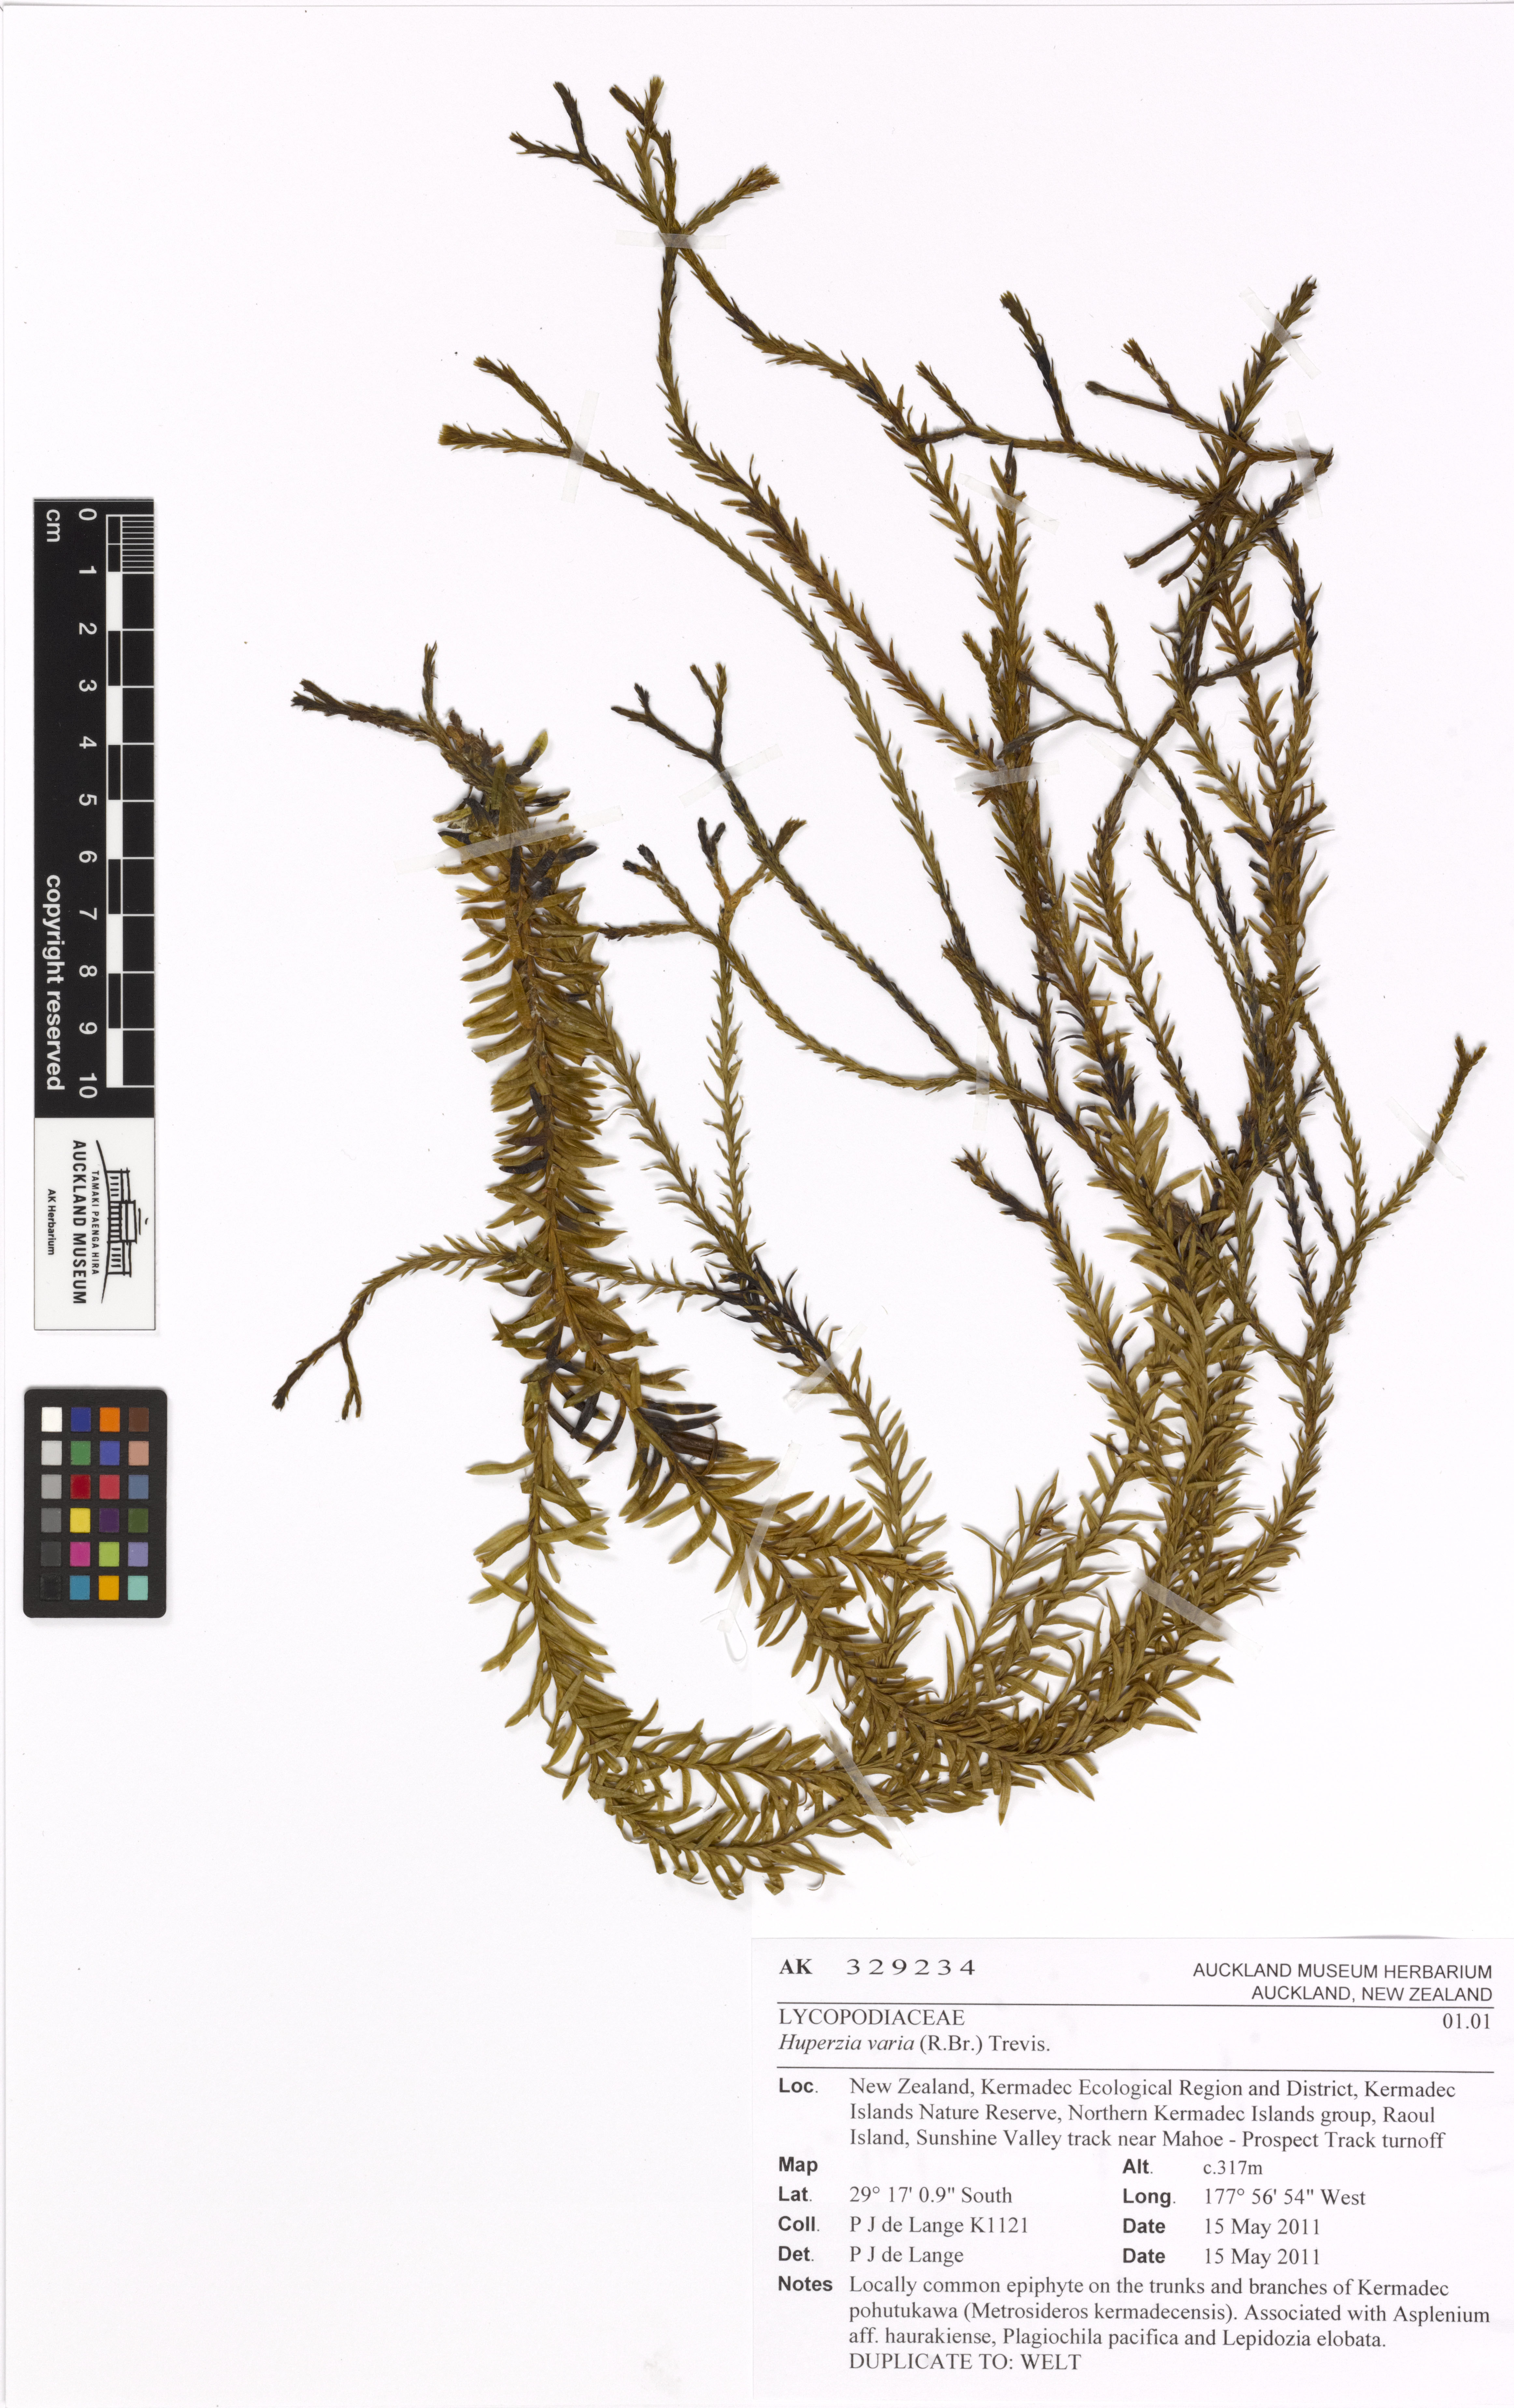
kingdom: Plantae
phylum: Tracheophyta
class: Lycopodiopsida
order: Lycopodiales
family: Lycopodiaceae
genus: Phlegmariurus
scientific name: Phlegmariurus billardierei
